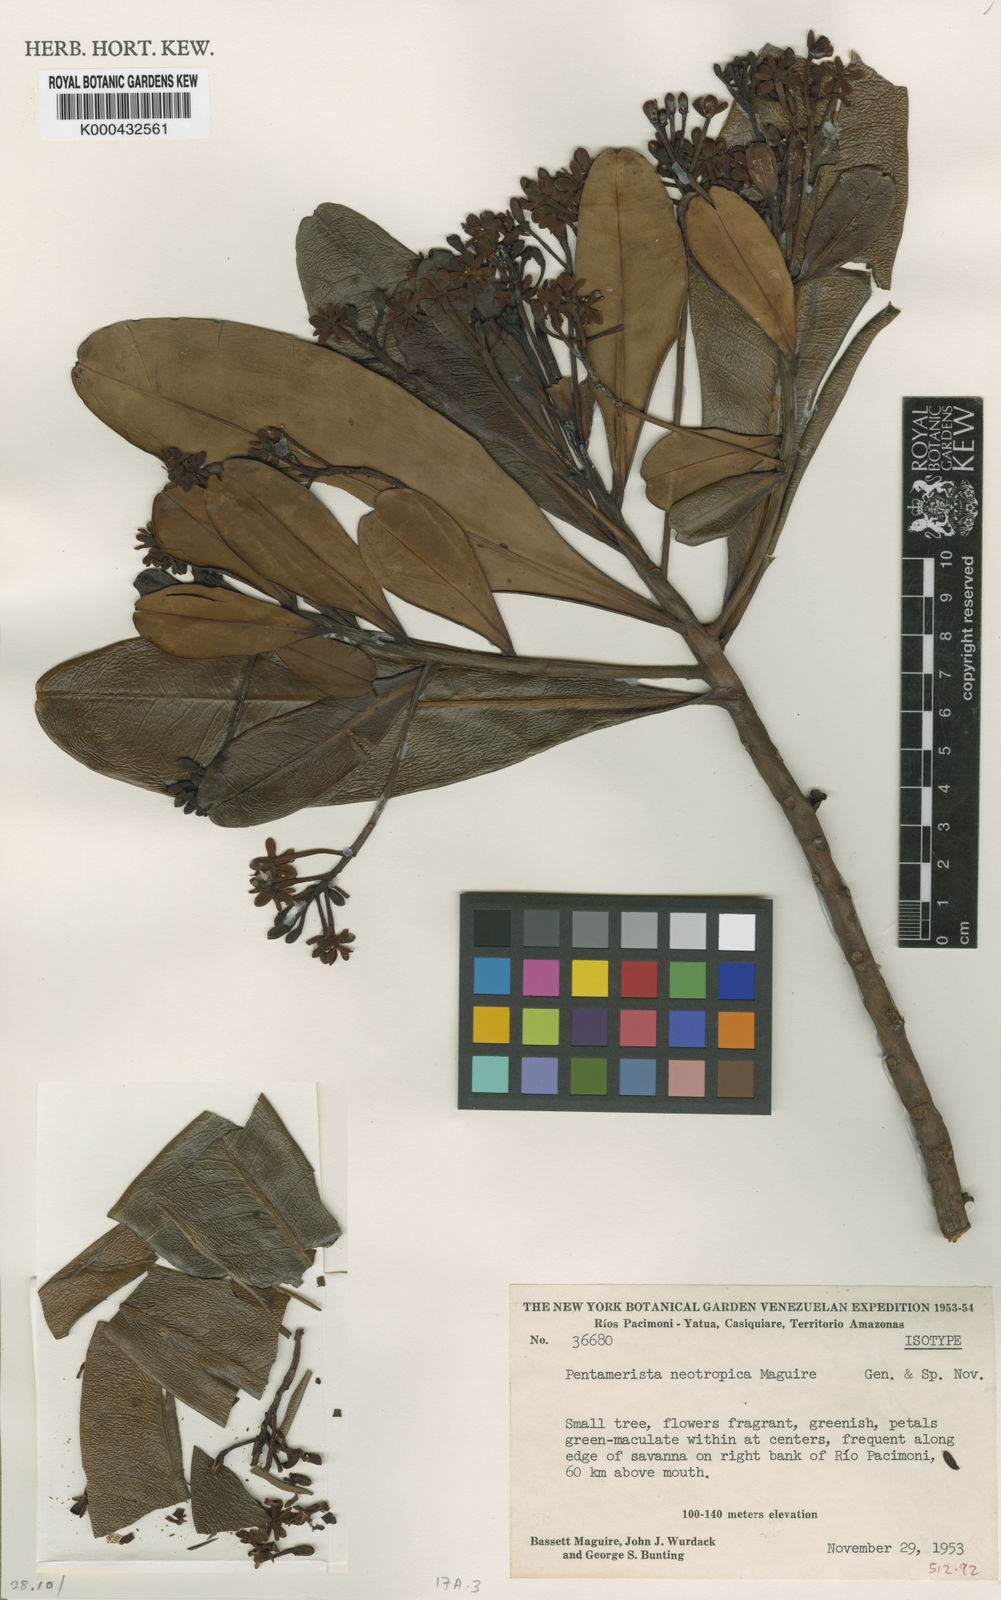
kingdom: Plantae
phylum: Tracheophyta
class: Magnoliopsida
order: Ericales
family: Tetrameristaceae
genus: Pentamerista
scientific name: Pentamerista neotropica
